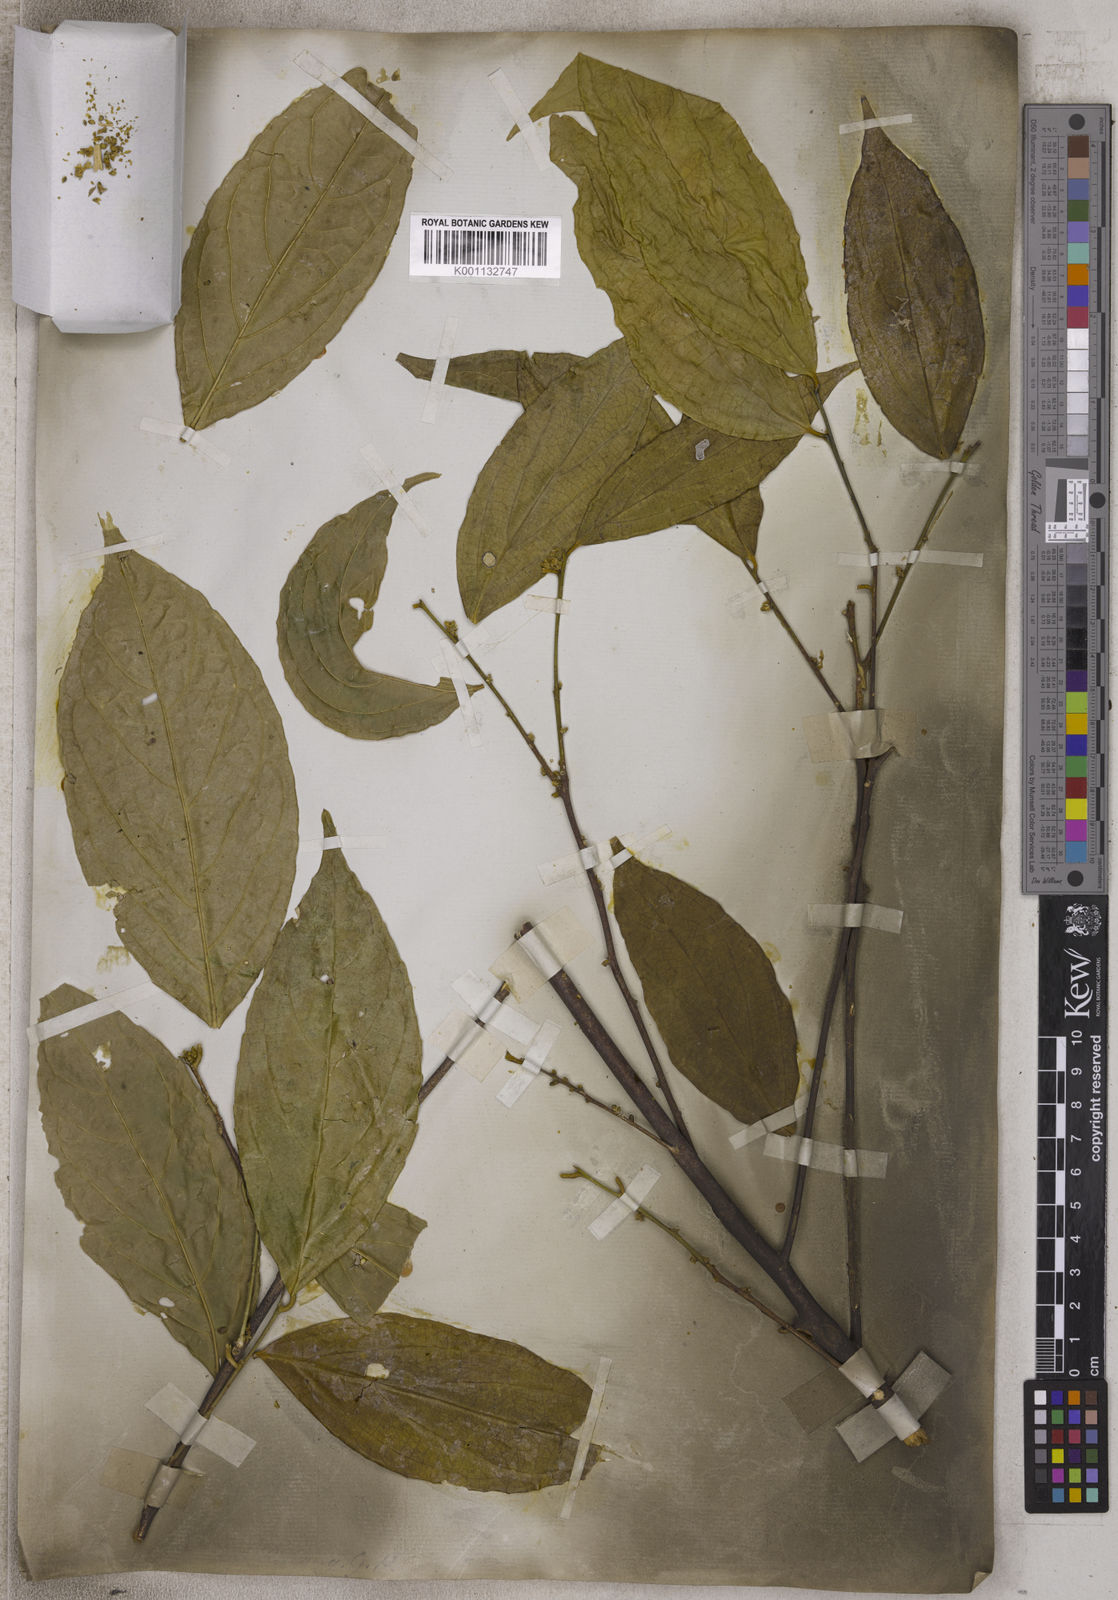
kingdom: Plantae
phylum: Tracheophyta
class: Magnoliopsida
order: Ericales
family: Symplocaceae
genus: Symplocos
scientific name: Symplocos
